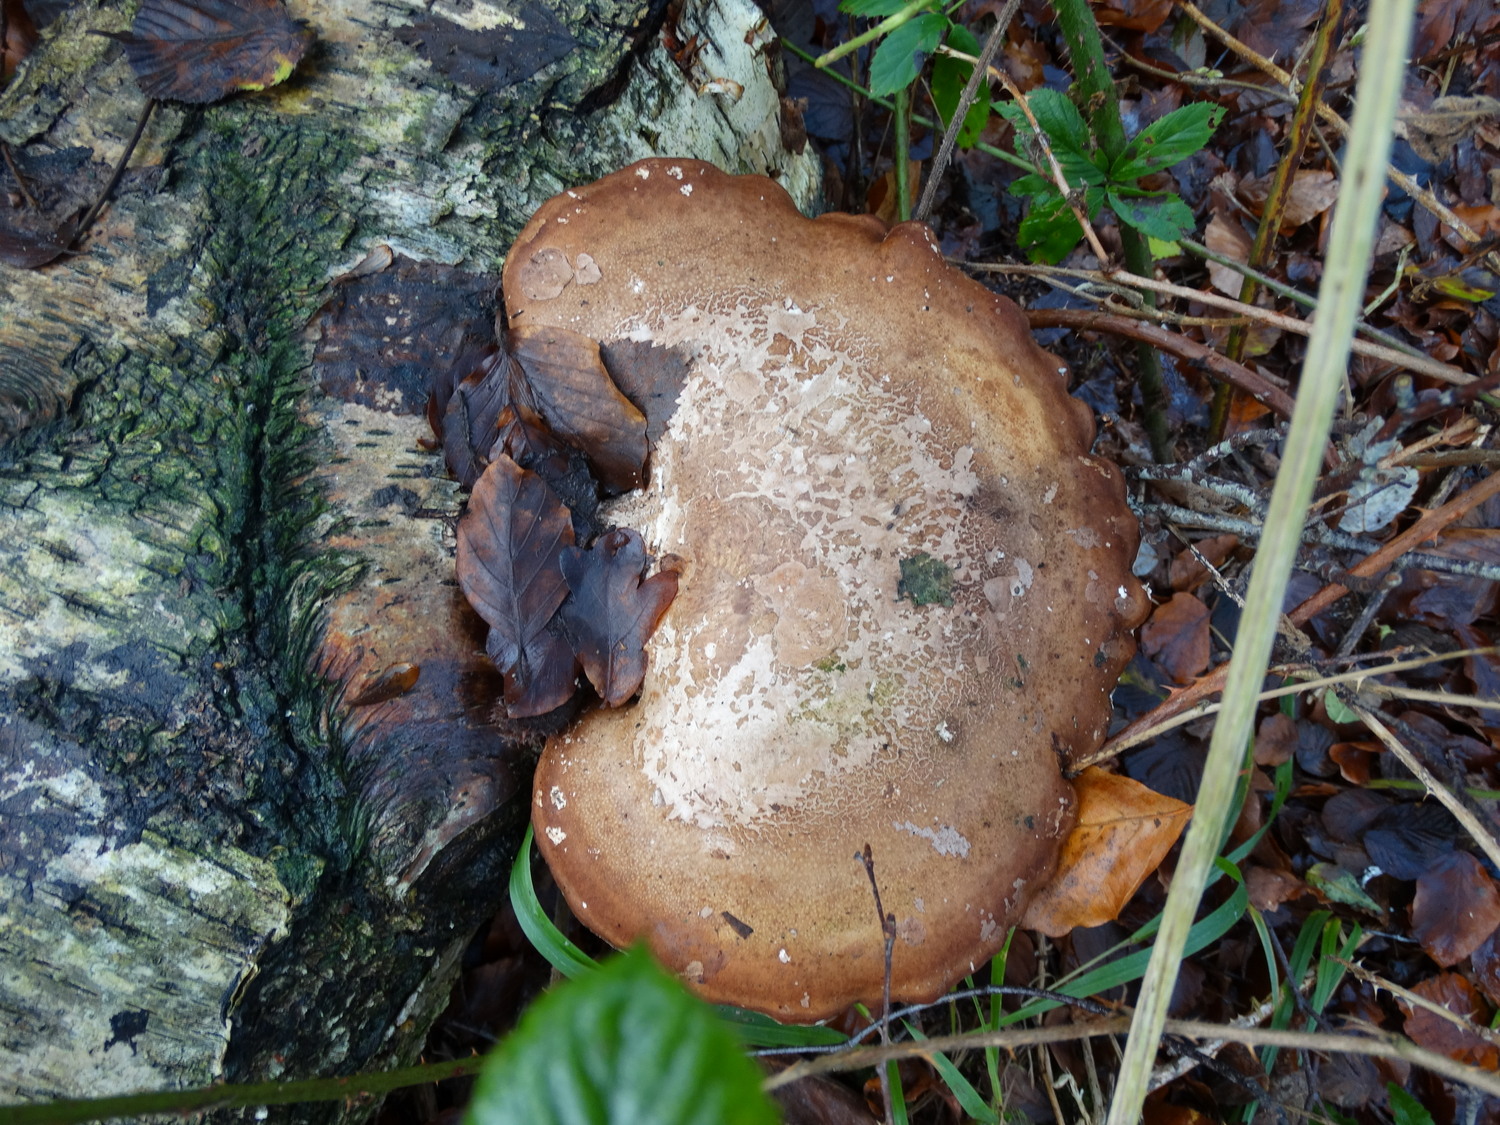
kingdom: Fungi
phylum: Basidiomycota
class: Agaricomycetes
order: Polyporales
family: Fomitopsidaceae
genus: Fomitopsis
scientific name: Fomitopsis betulina
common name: birkeporesvamp
